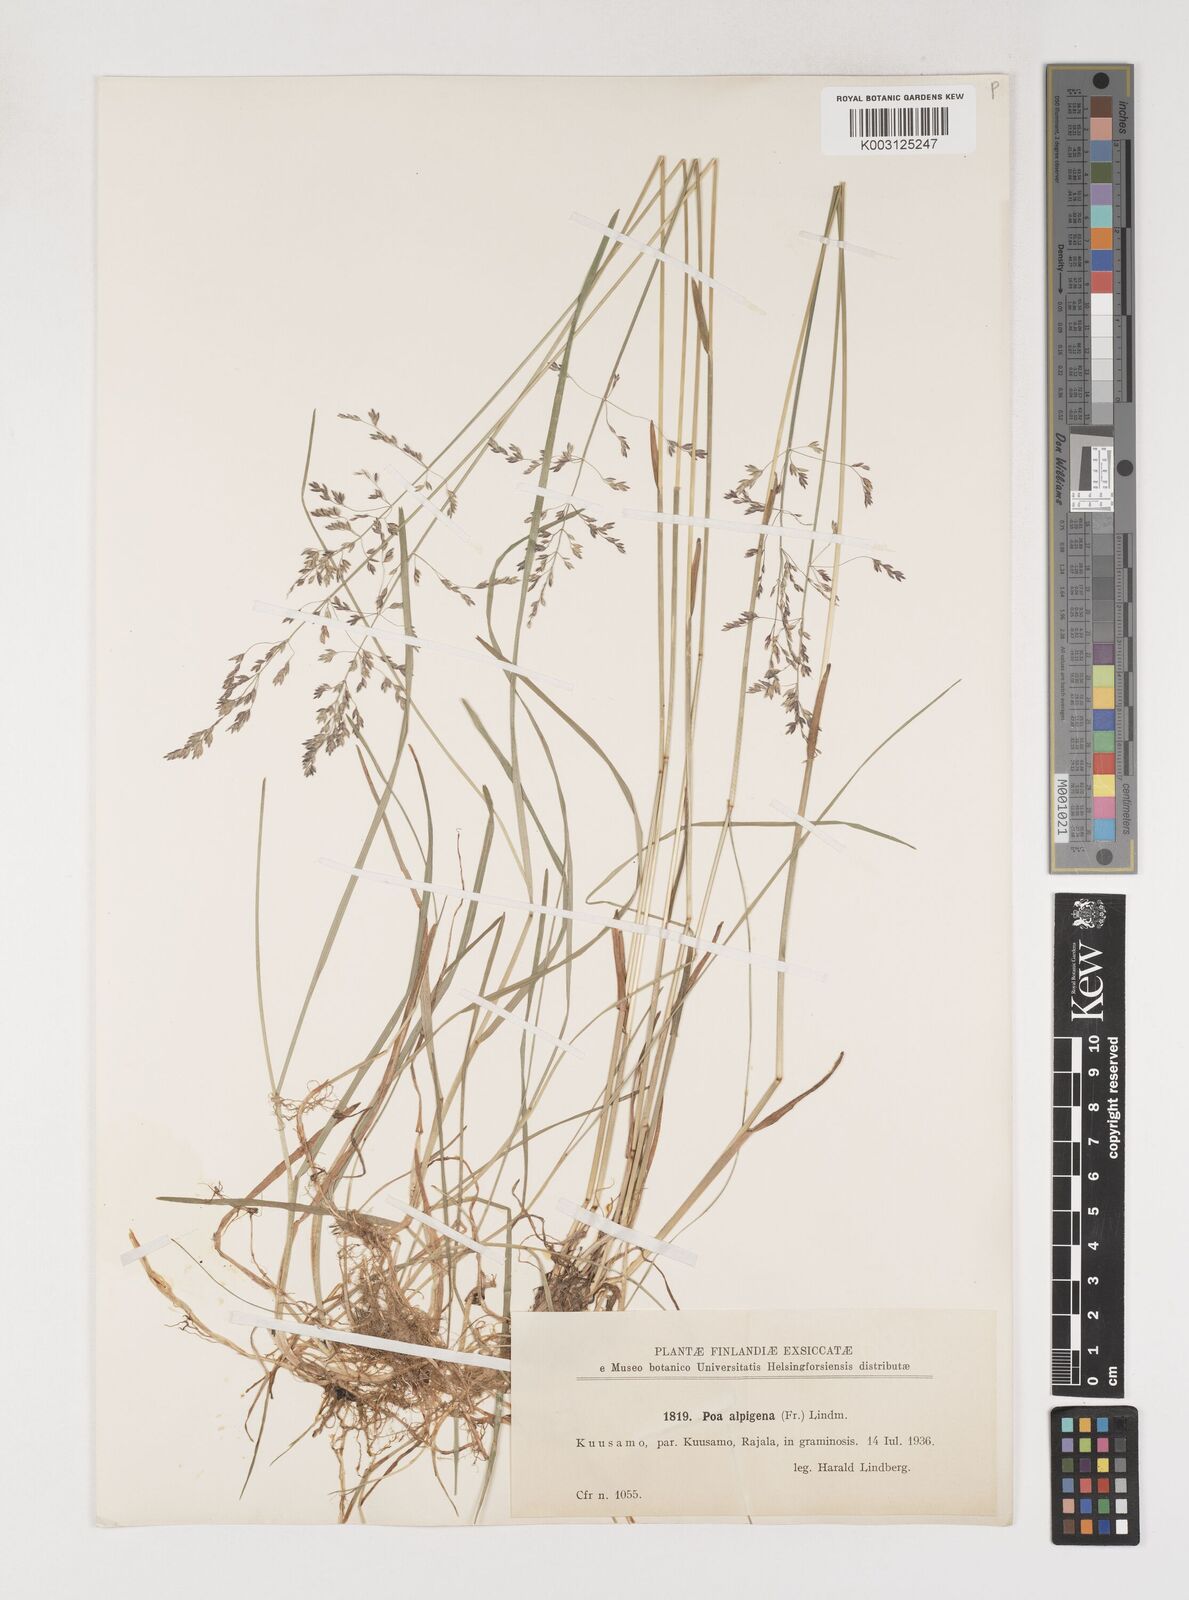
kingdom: Plantae
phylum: Tracheophyta
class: Liliopsida
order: Poales
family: Poaceae
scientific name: Poaceae
